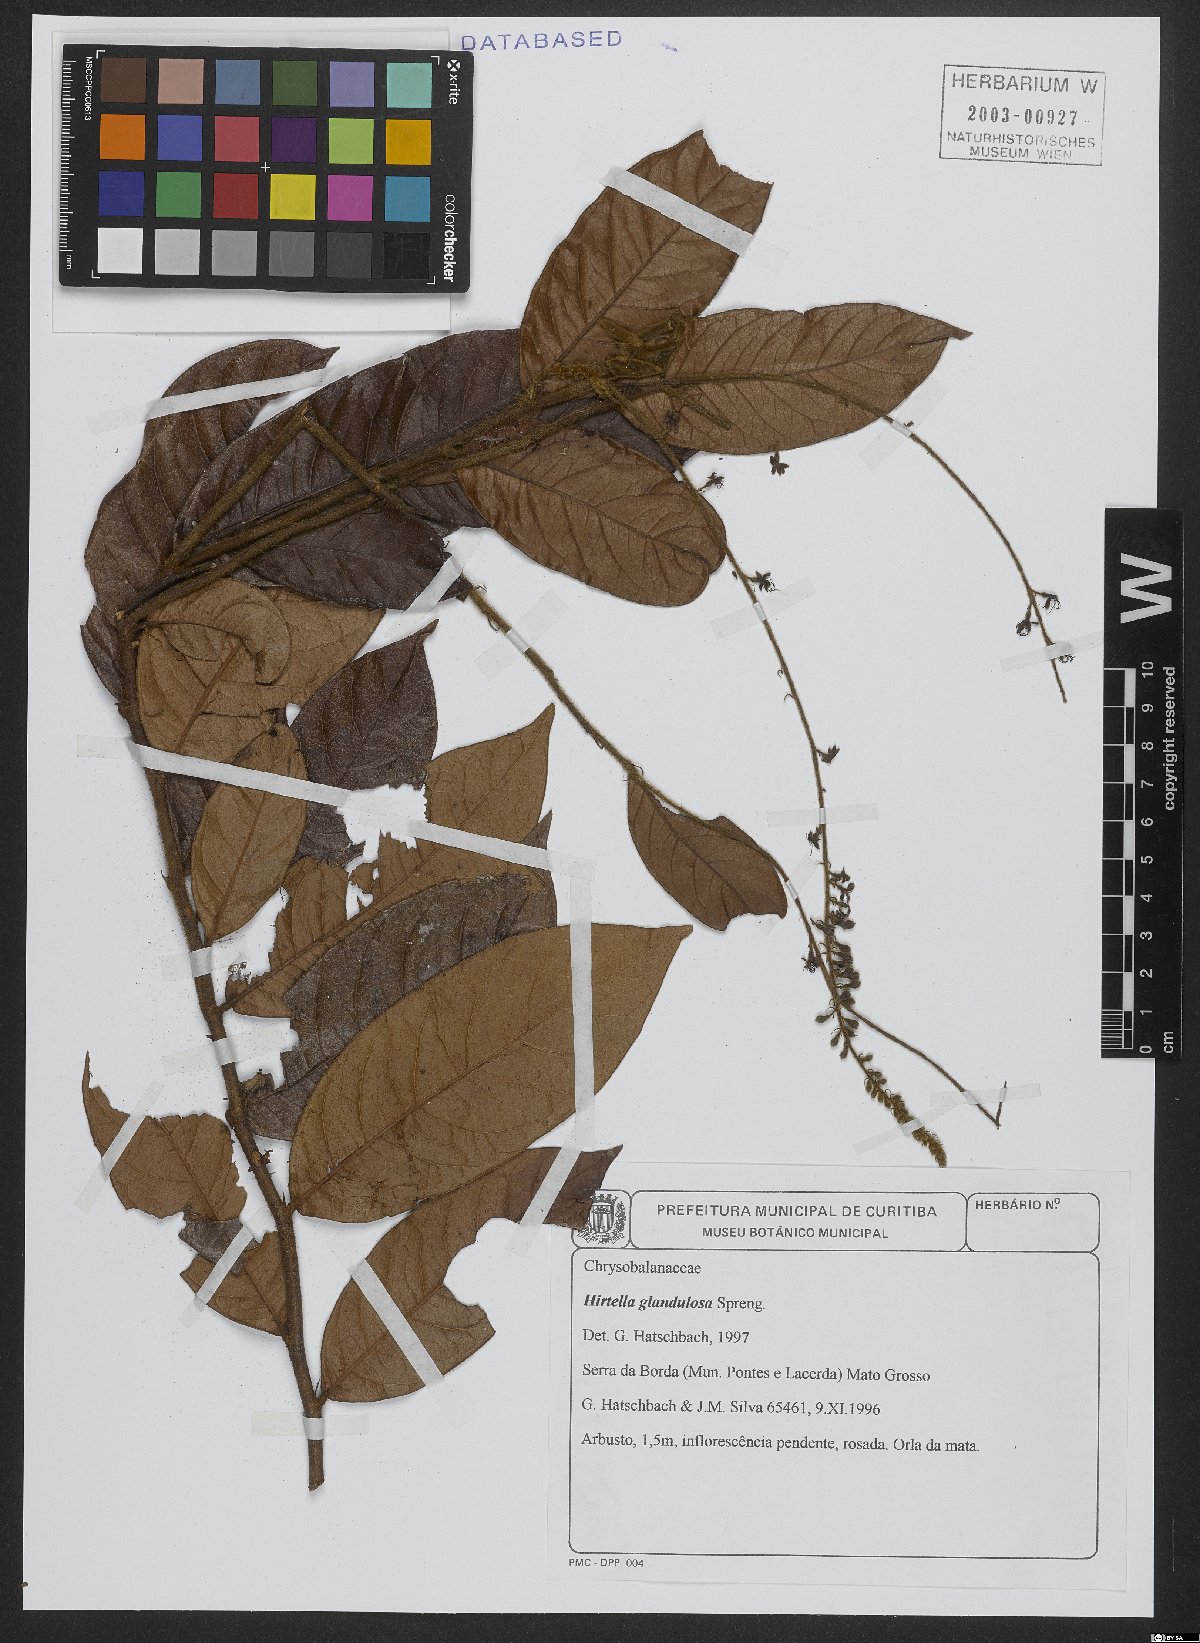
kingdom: Plantae
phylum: Tracheophyta
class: Magnoliopsida
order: Malpighiales
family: Chrysobalanaceae
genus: Hirtella
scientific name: Hirtella glandulosa
